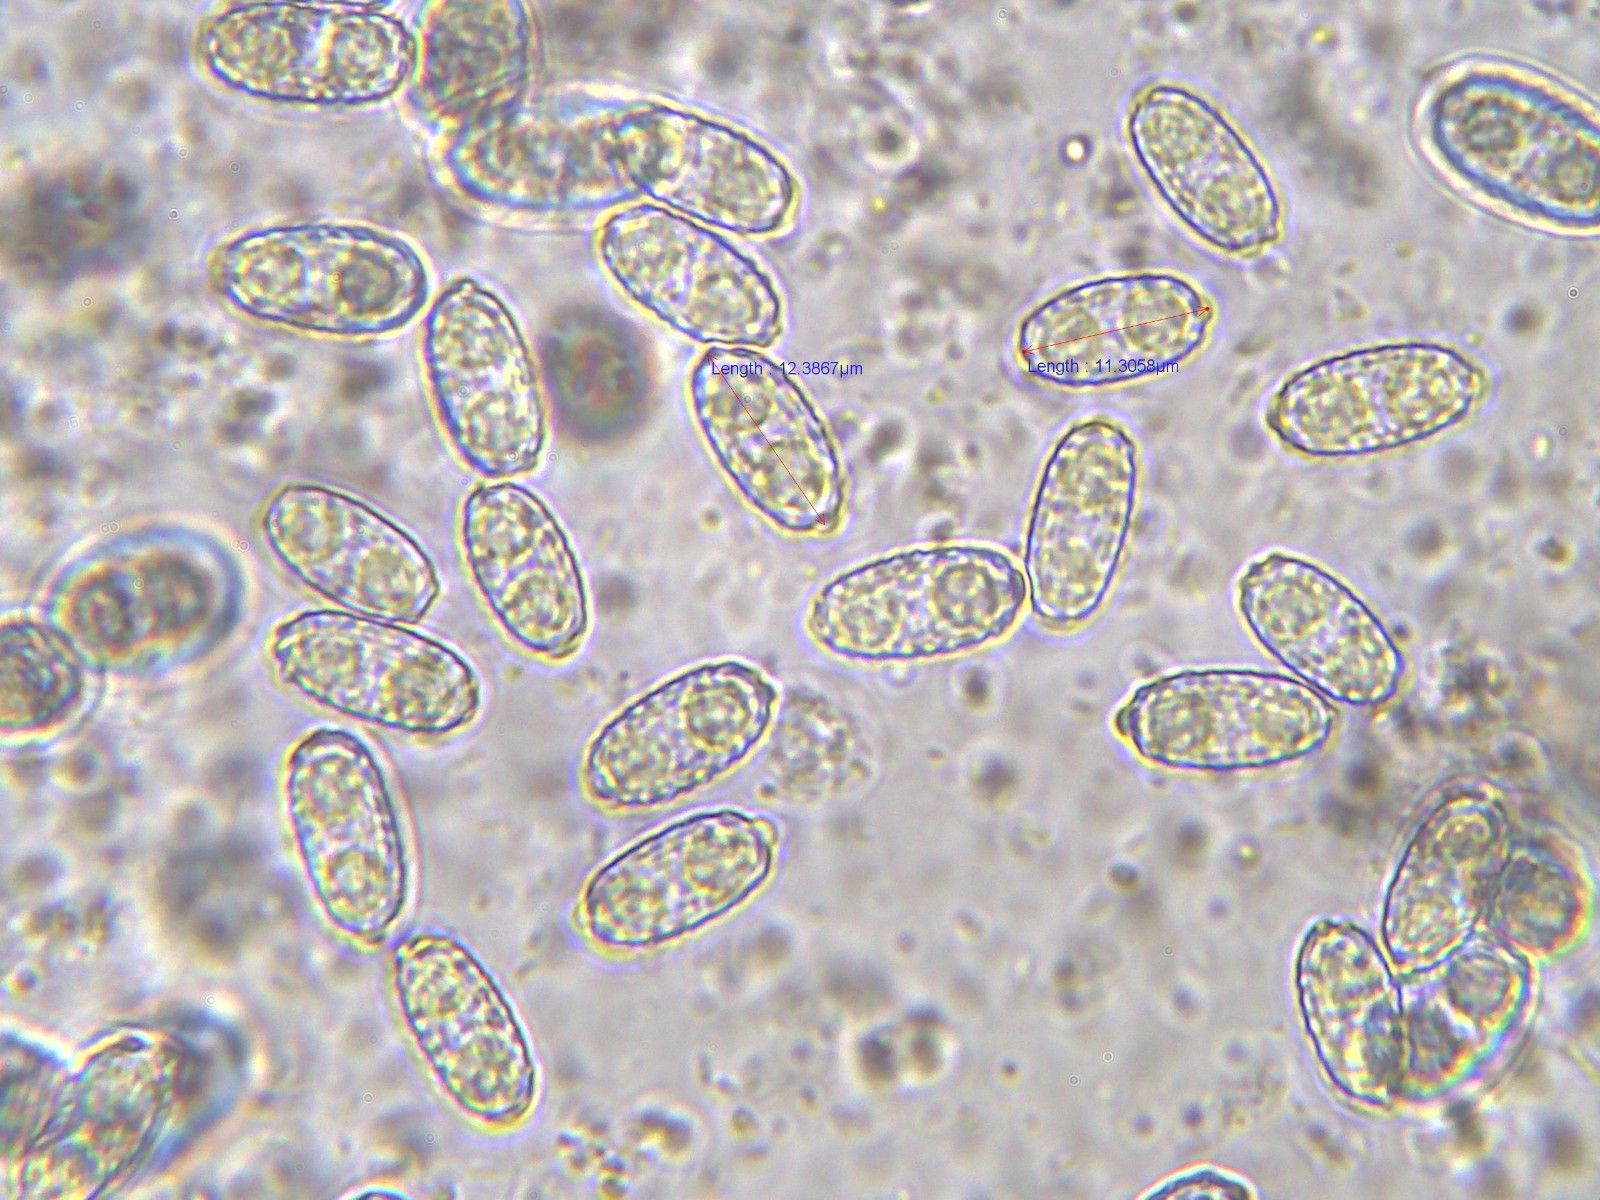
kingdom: Fungi
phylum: Ascomycota
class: Pezizomycetes
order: Pezizales
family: Pezizaceae
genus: Daleomyces
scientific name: Daleomyces petersii
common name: brandplet-bægersvamp
